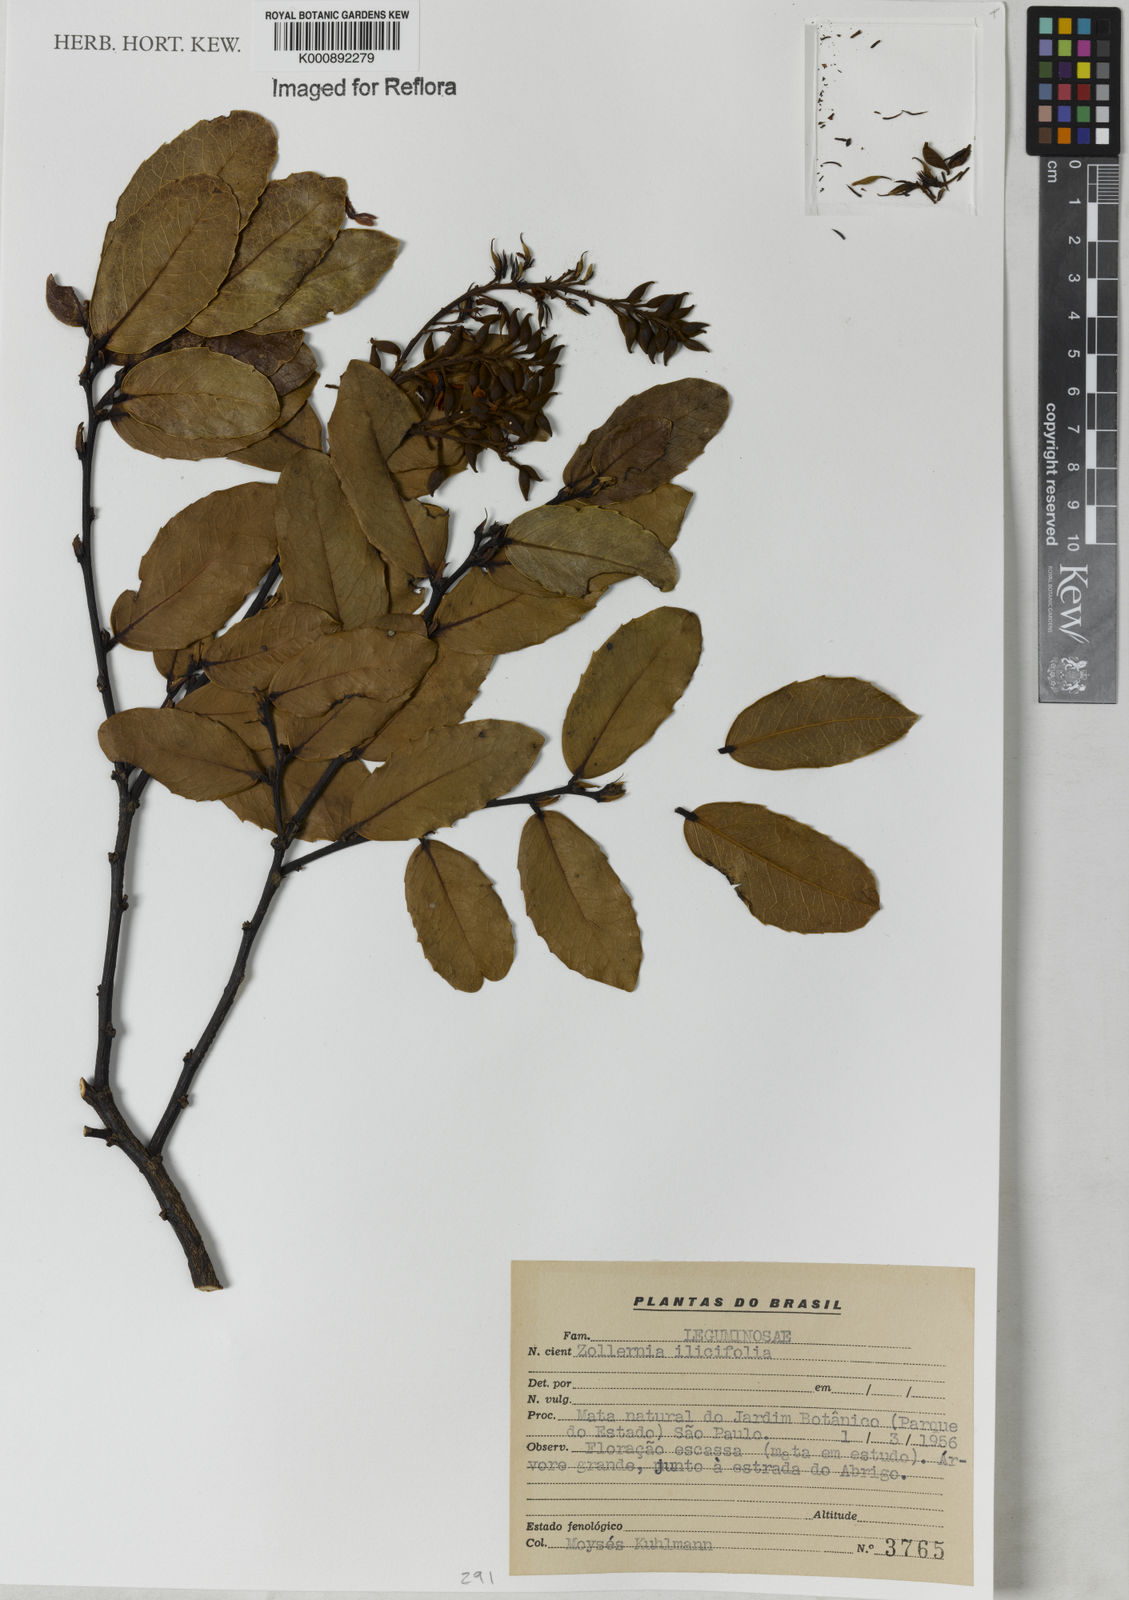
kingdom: Plantae
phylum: Tracheophyta
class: Magnoliopsida
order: Fabales
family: Fabaceae
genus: Zollernia
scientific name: Zollernia ilicifolia
